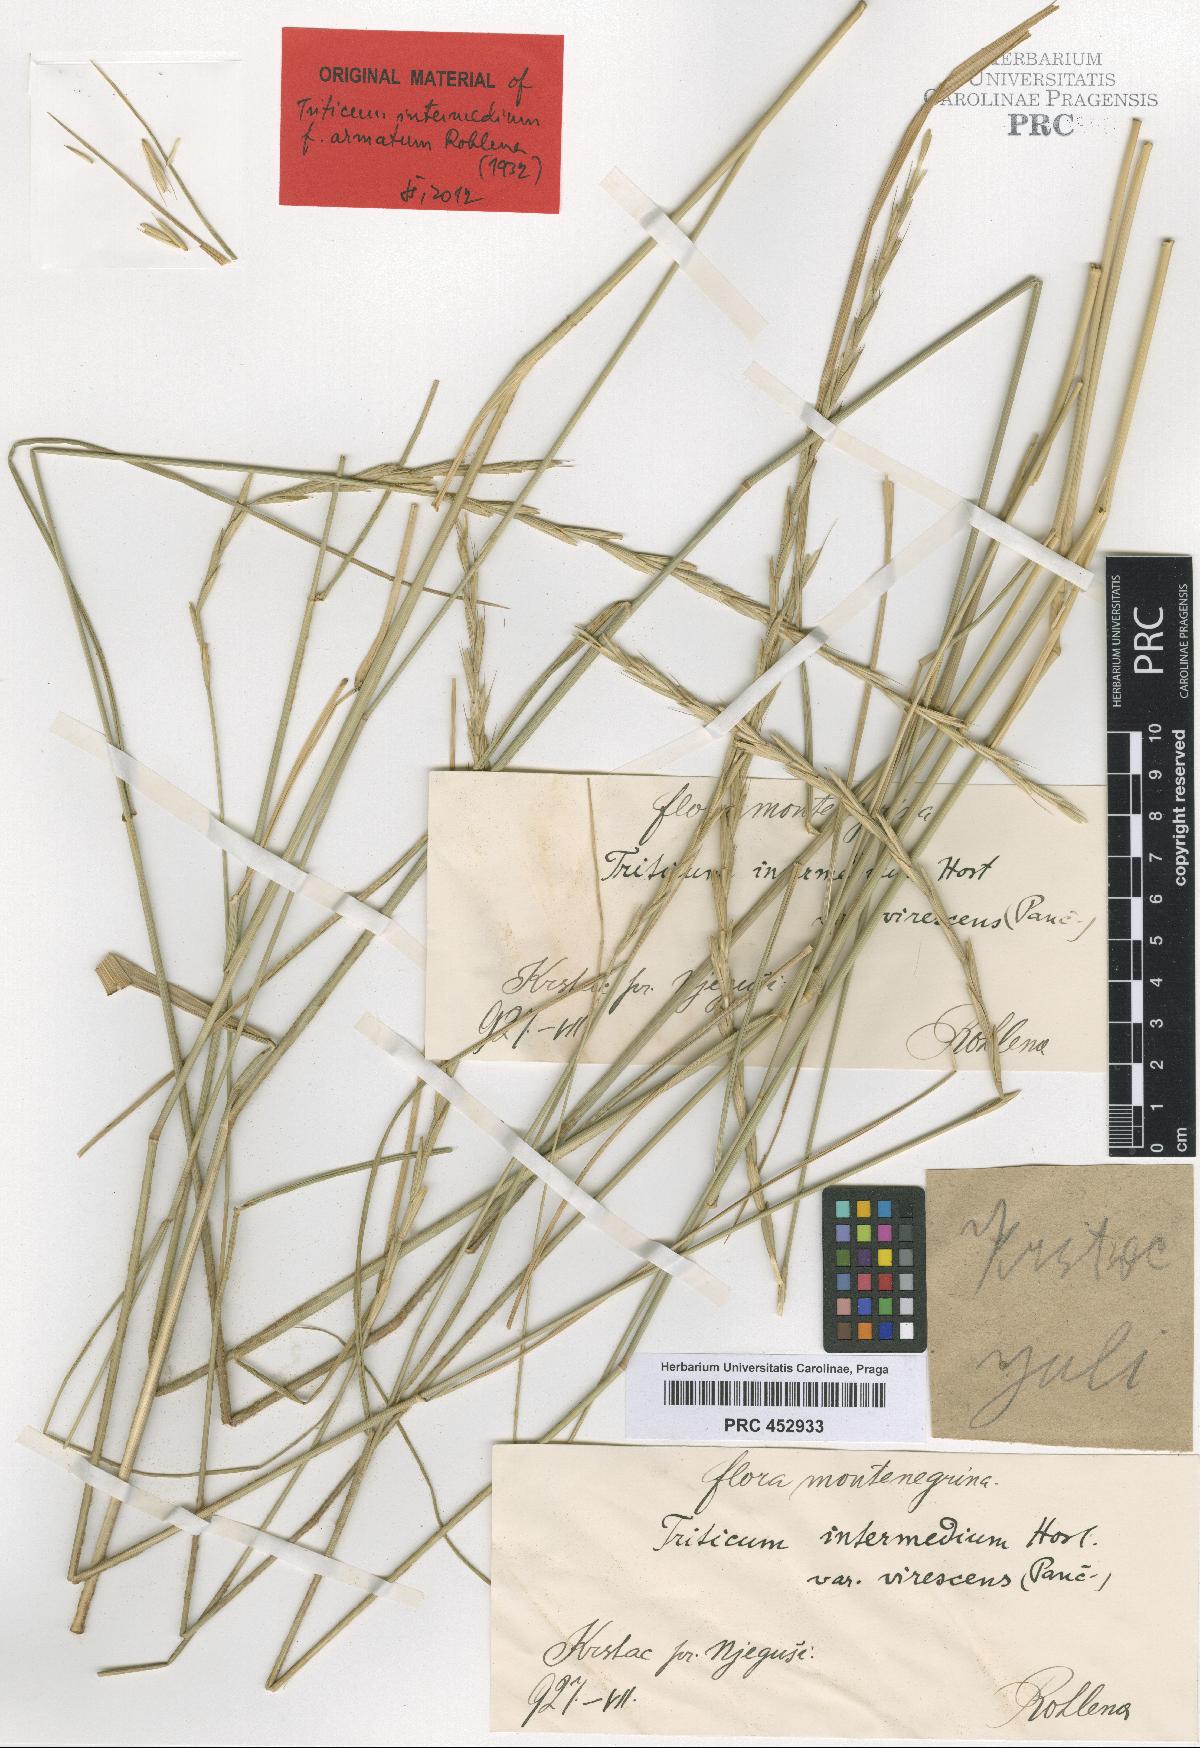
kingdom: Plantae
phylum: Tracheophyta
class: Liliopsida
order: Poales
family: Poaceae
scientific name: Poaceae
